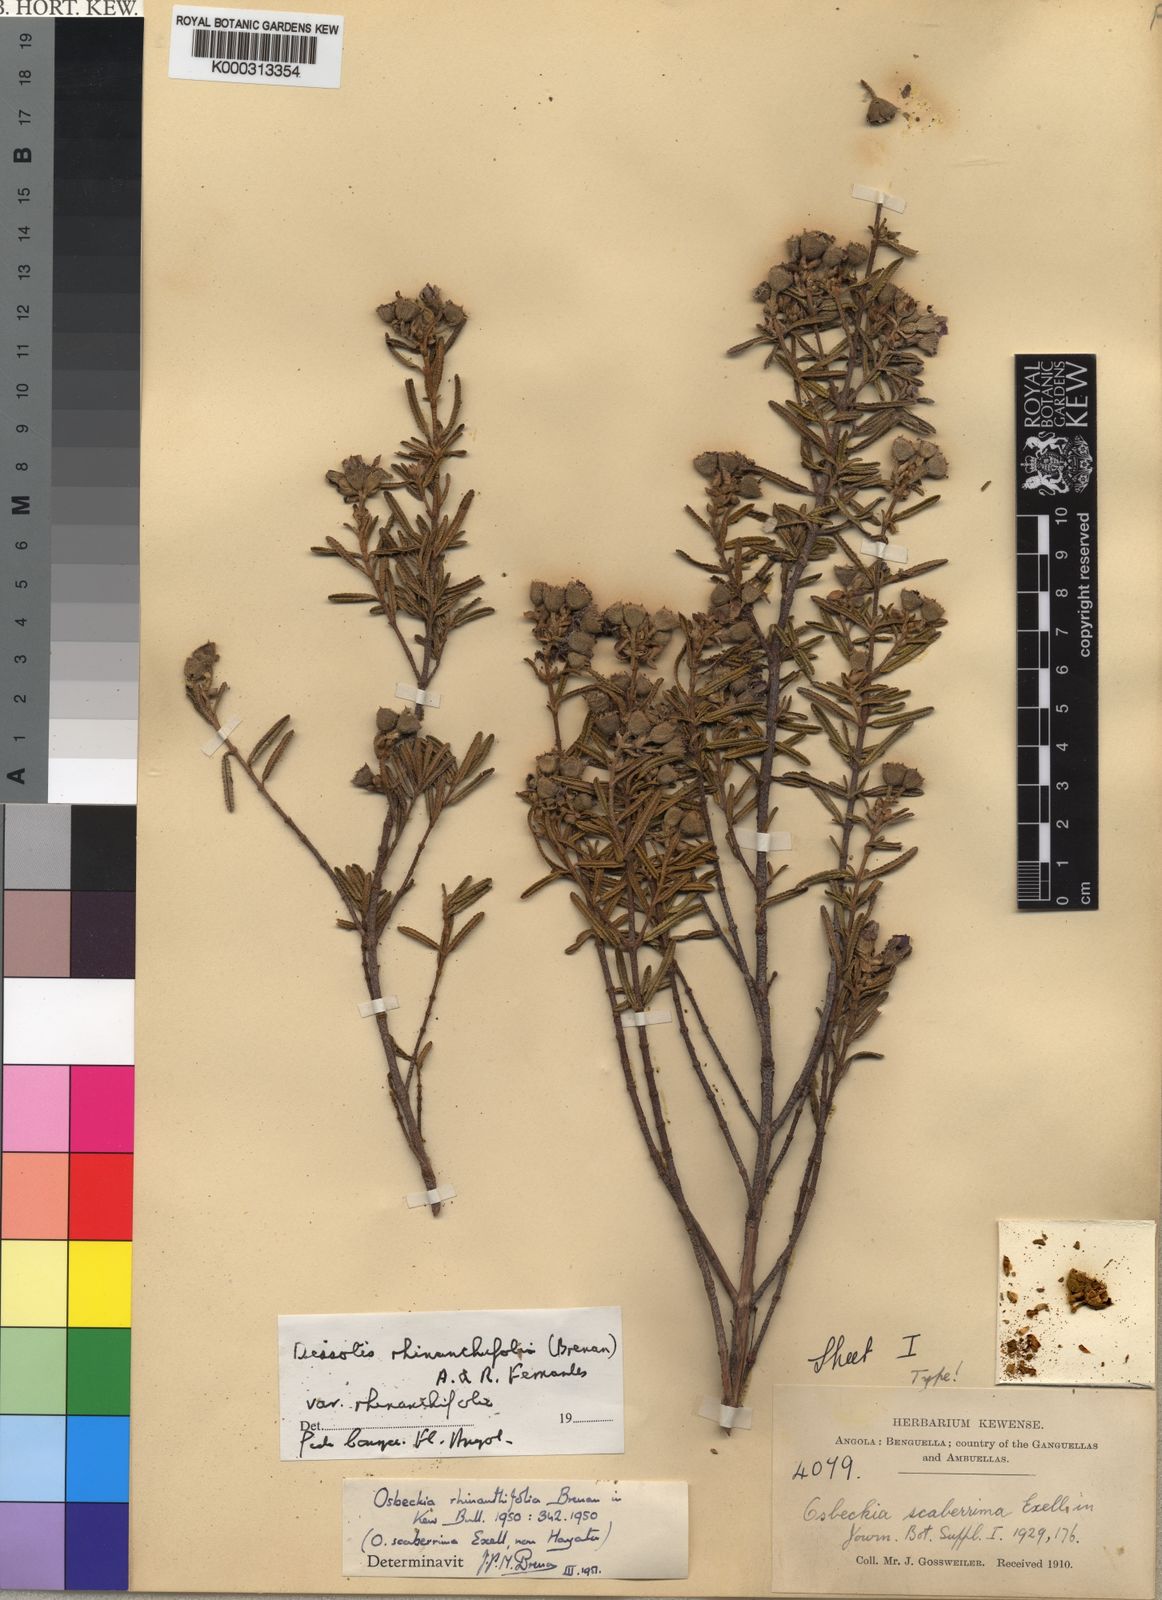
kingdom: Plantae
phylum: Tracheophyta
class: Magnoliopsida
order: Myrtales
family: Melastomataceae
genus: Rosettea
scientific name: Rosettea rhinanthifolia
